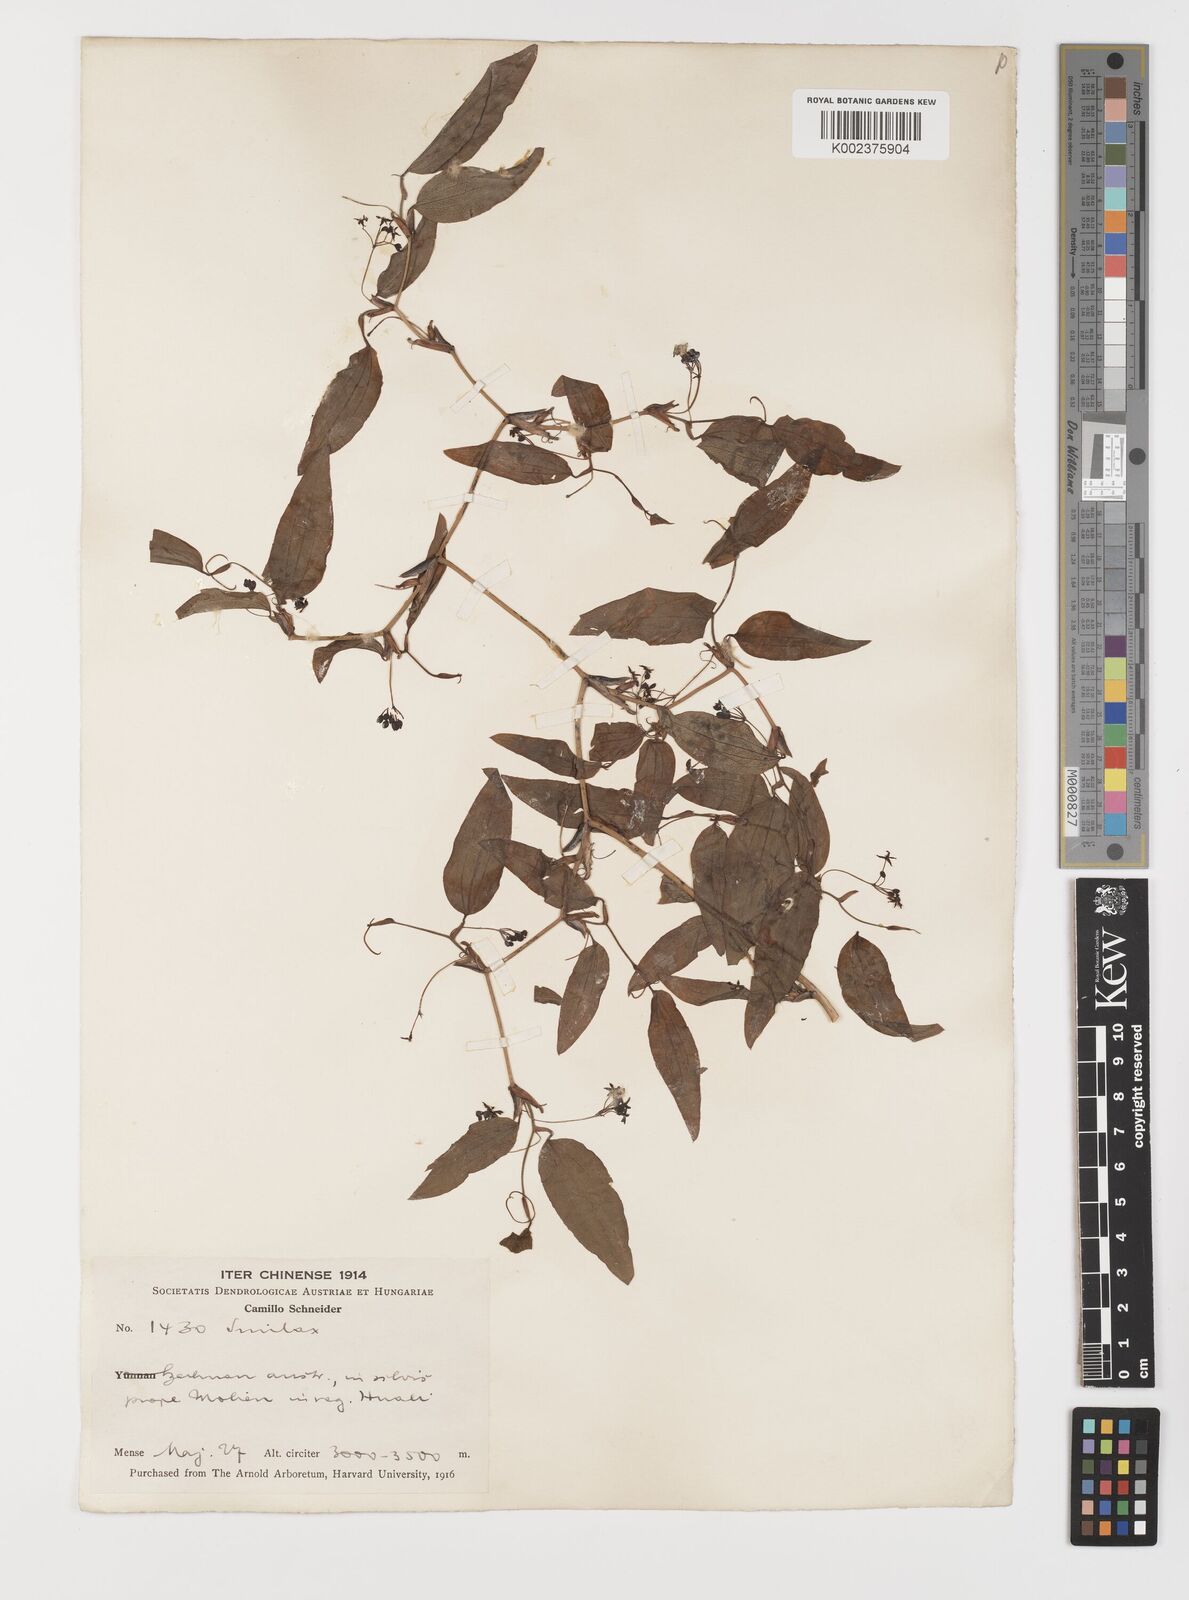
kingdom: Plantae
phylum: Tracheophyta
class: Liliopsida
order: Liliales
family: Smilacaceae
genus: Smilax
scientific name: Smilax menispermoidea
